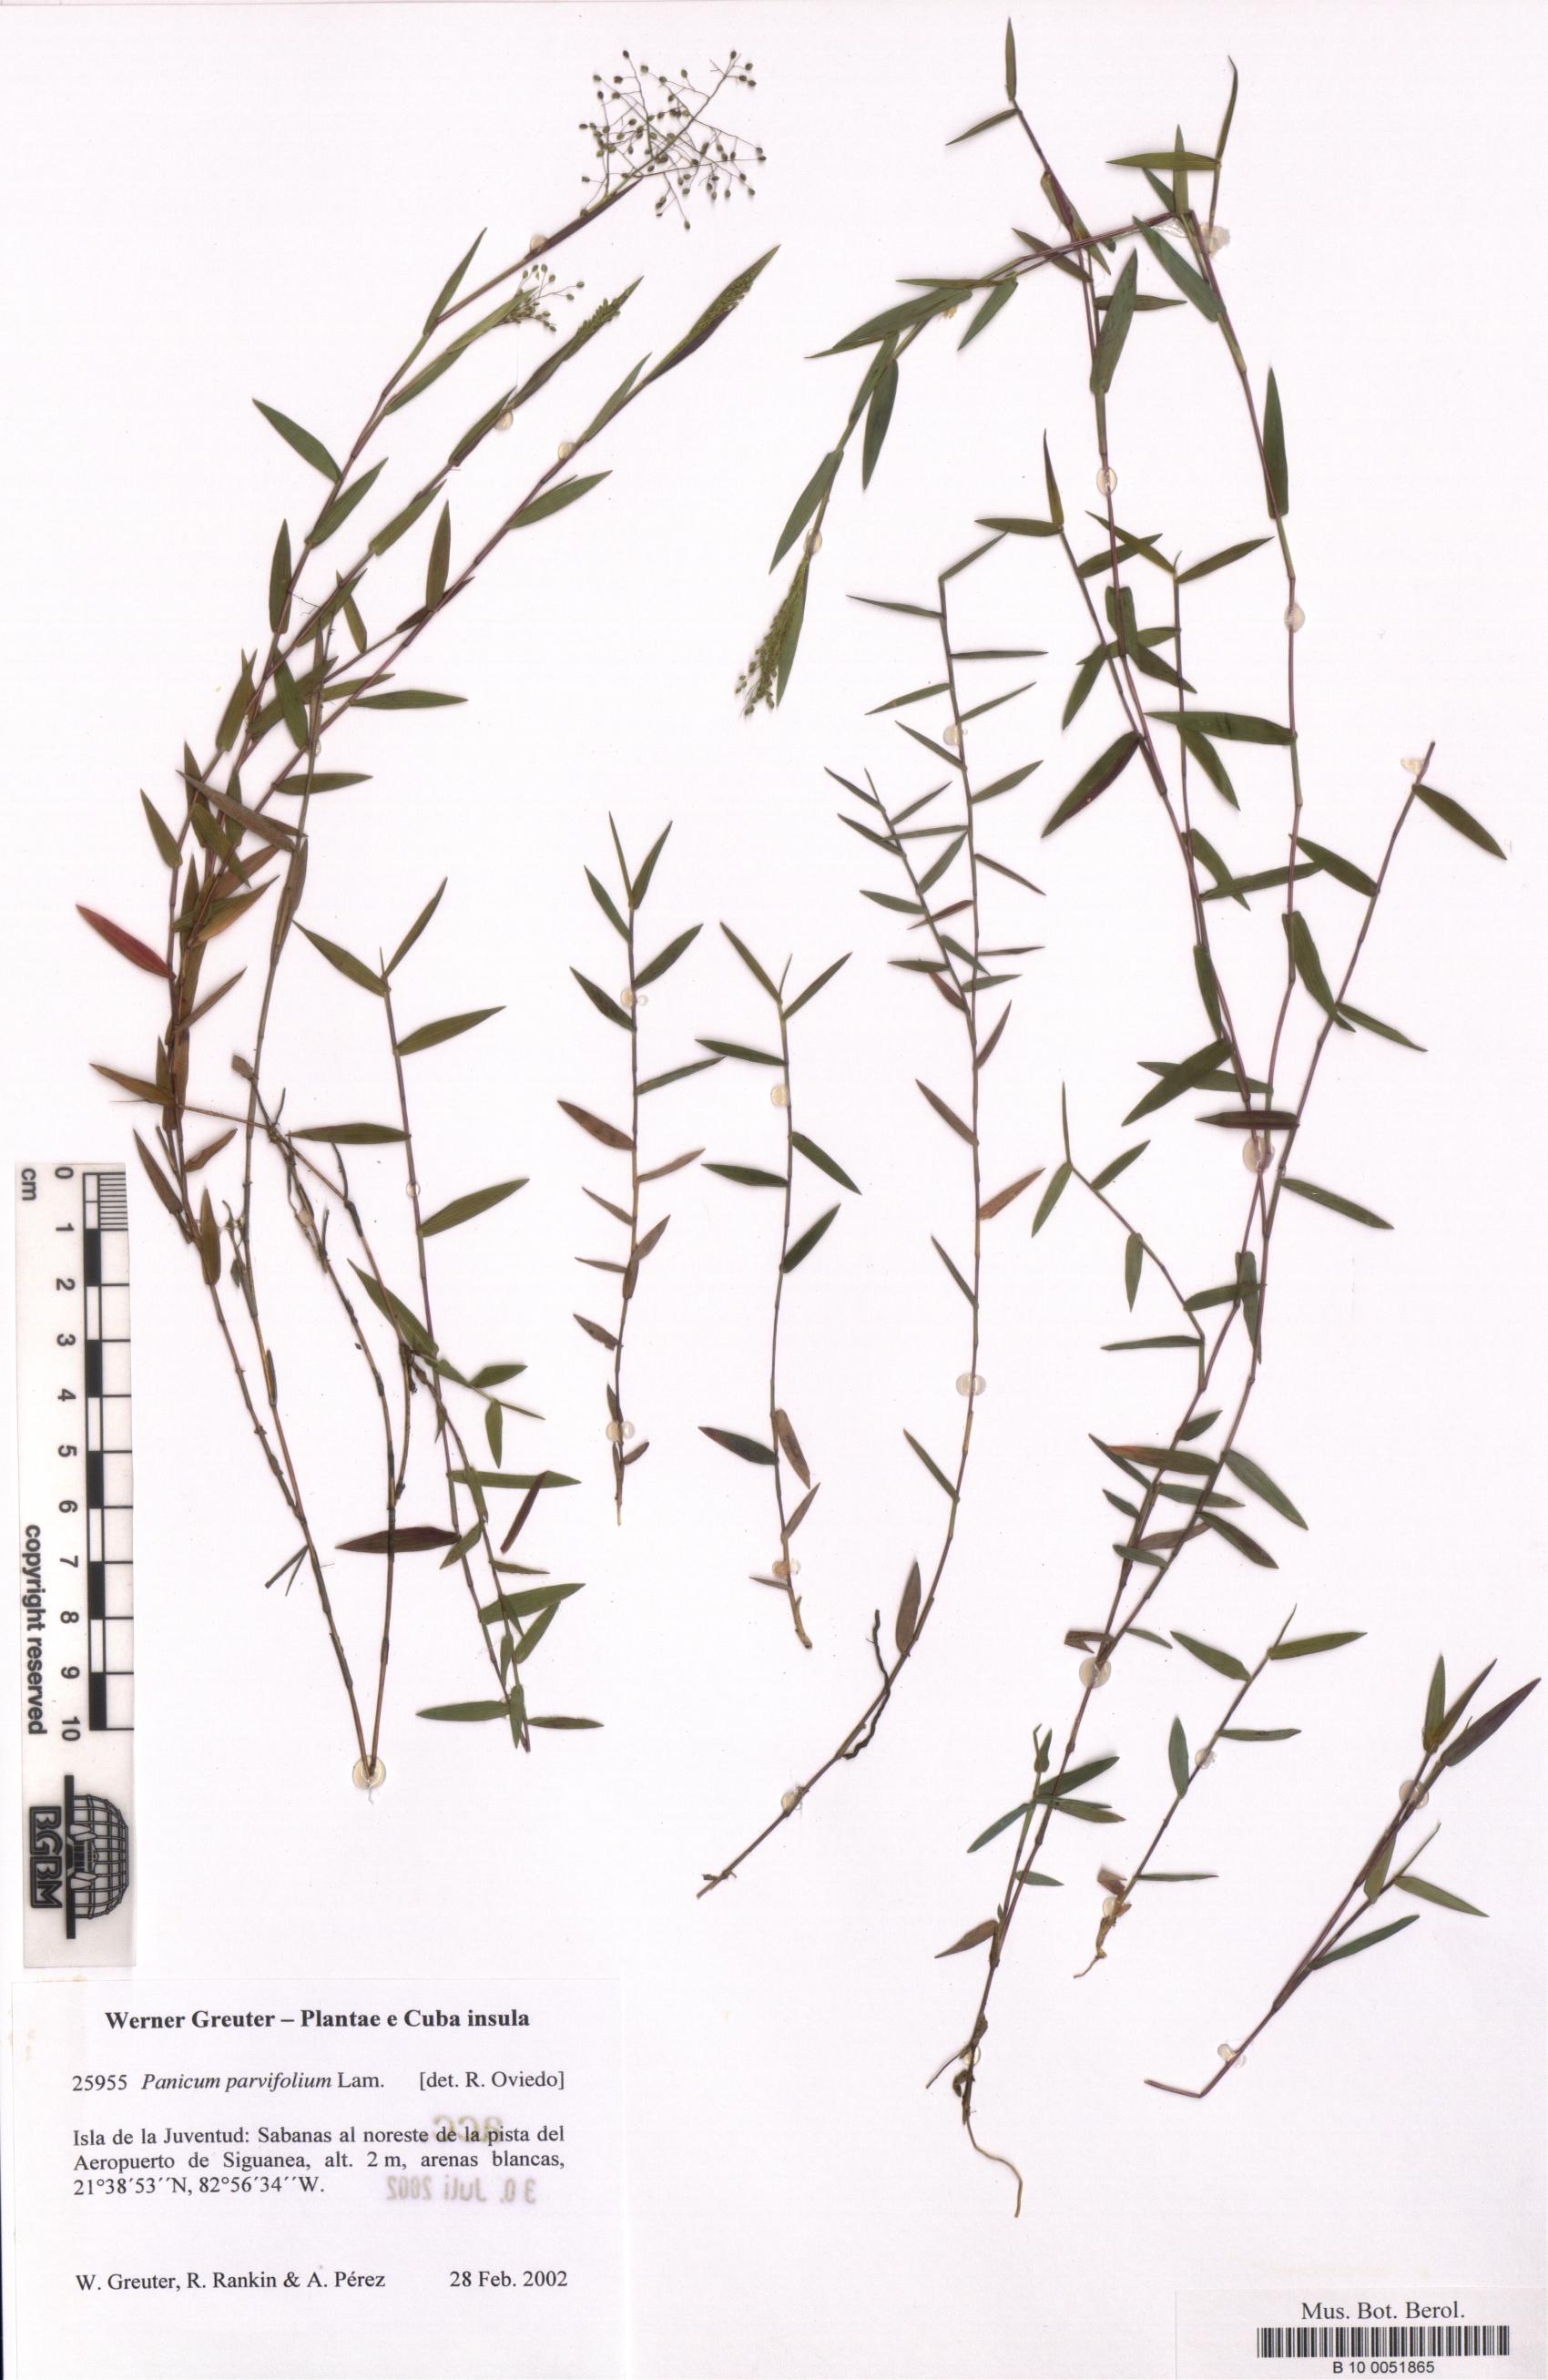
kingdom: Plantae
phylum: Tracheophyta
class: Liliopsida
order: Poales
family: Poaceae
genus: Trichanthecium
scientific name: Trichanthecium parvifolium
